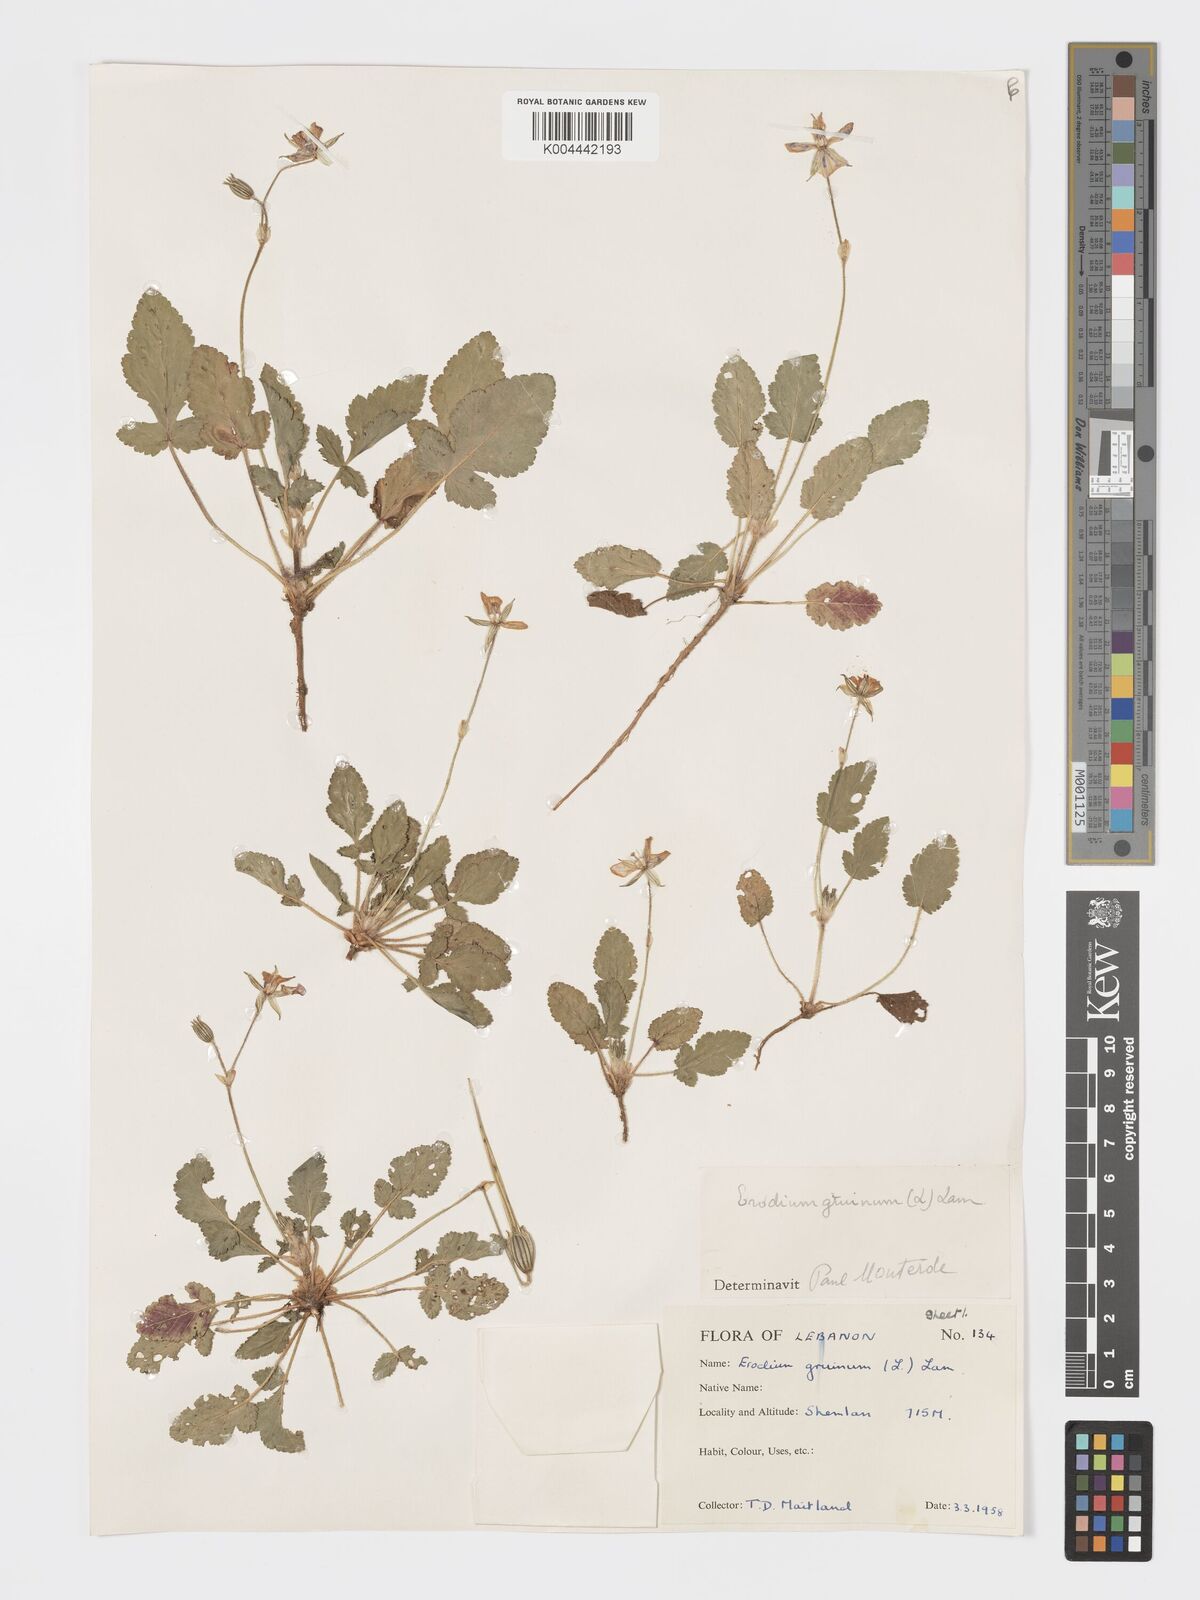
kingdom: Plantae
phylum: Tracheophyta
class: Magnoliopsida
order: Geraniales
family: Geraniaceae
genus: Erodium
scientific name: Erodium gruinum
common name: Iranian stork's bill
